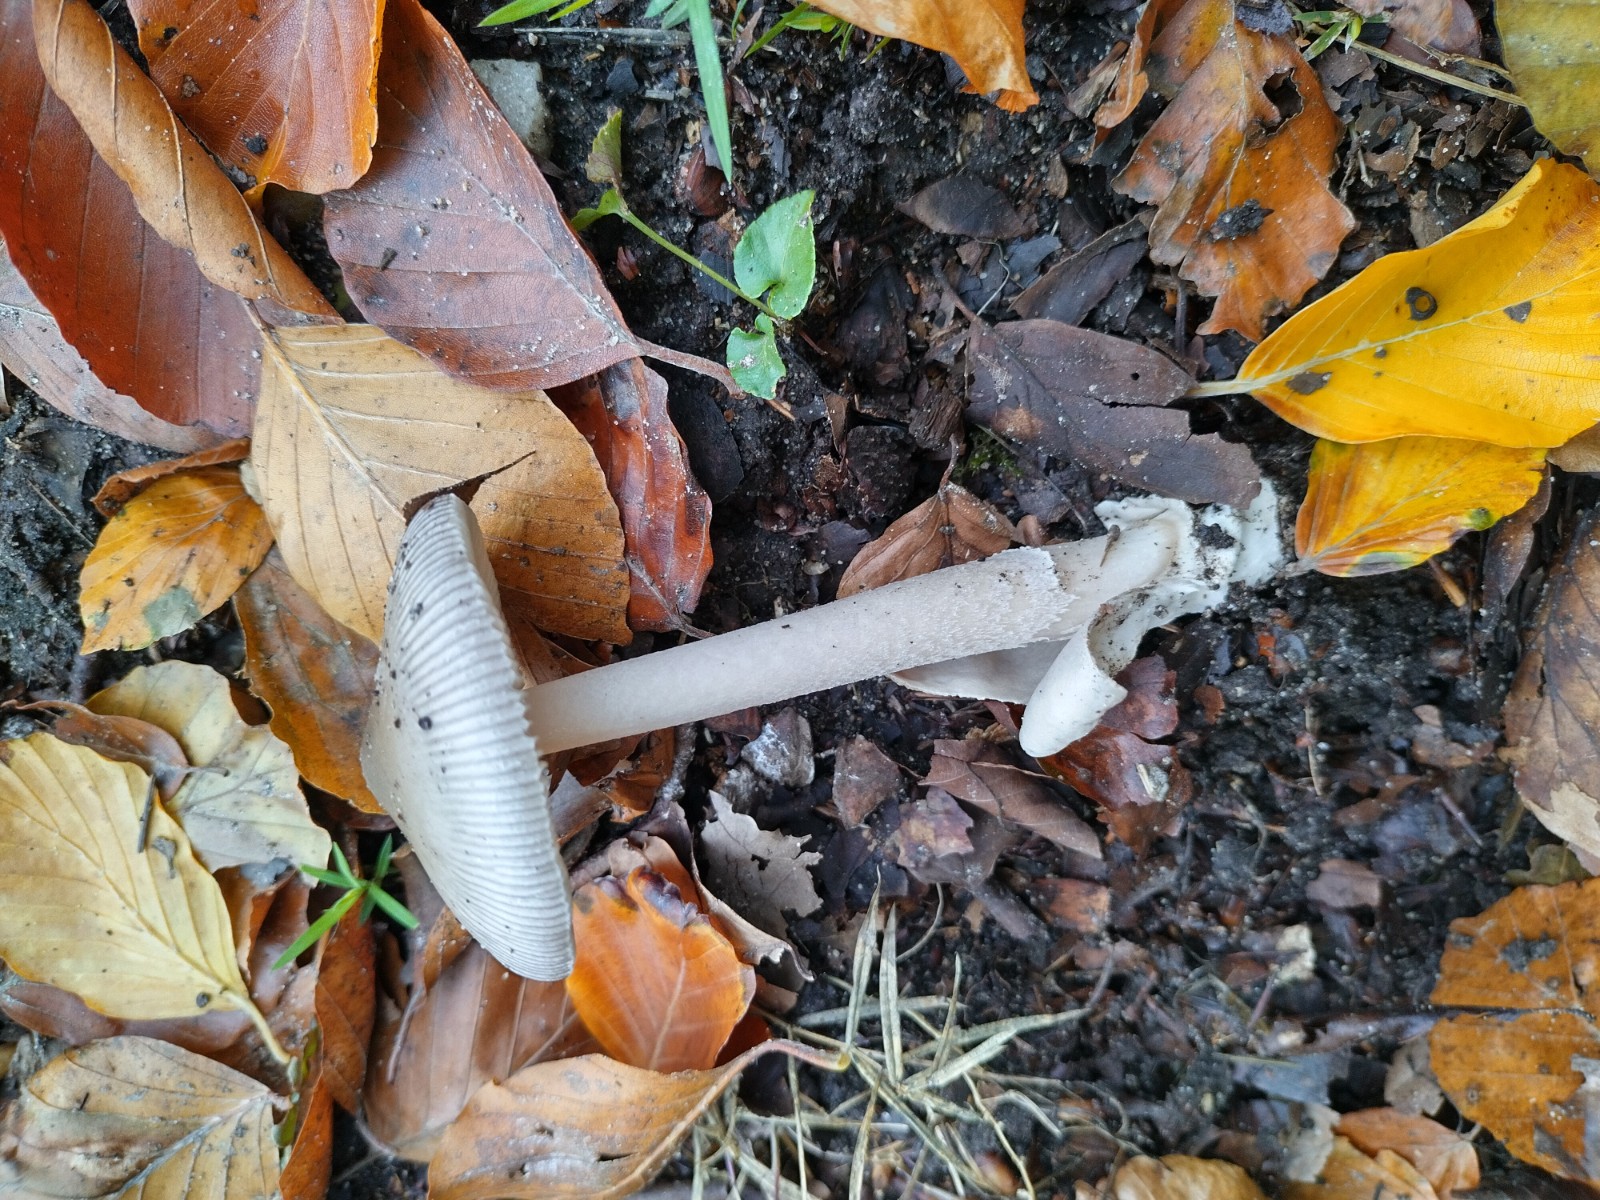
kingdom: Fungi
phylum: Basidiomycota
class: Agaricomycetes
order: Agaricales
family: Amanitaceae
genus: Amanita
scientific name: Amanita
